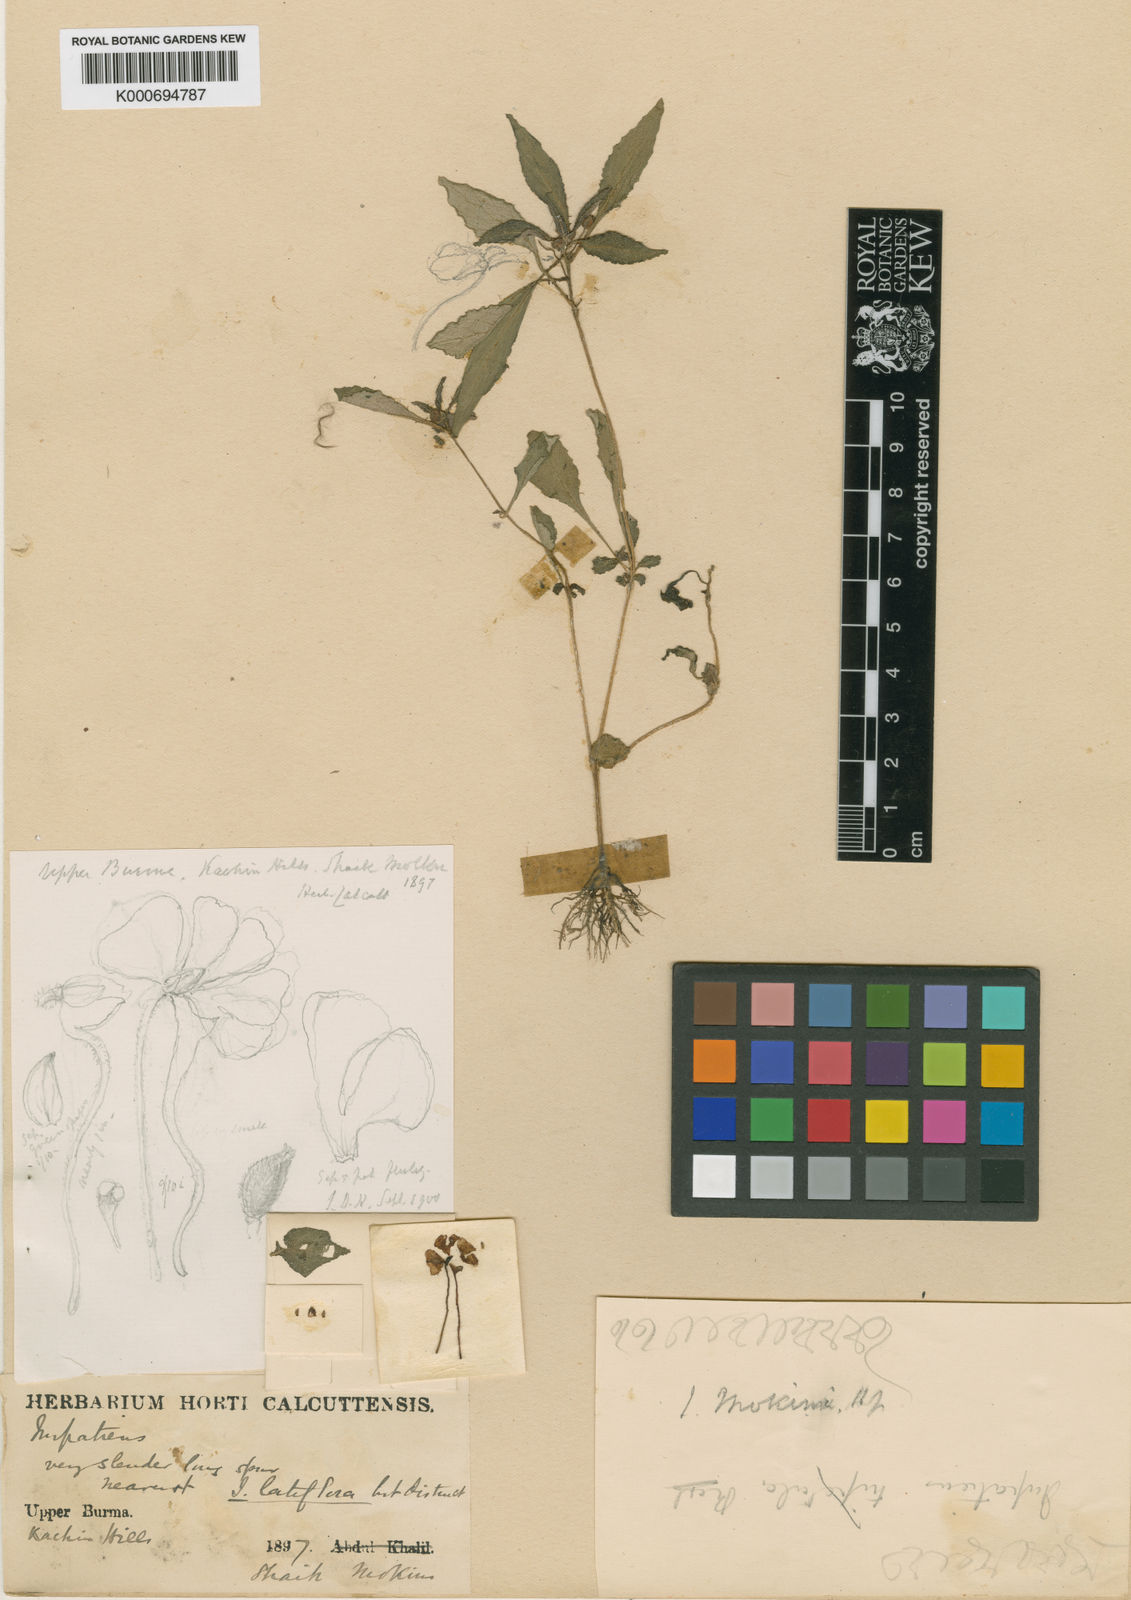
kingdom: Plantae
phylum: Tracheophyta
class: Magnoliopsida
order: Ericales
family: Balsaminaceae
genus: Impatiens
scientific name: Impatiens mokimi
